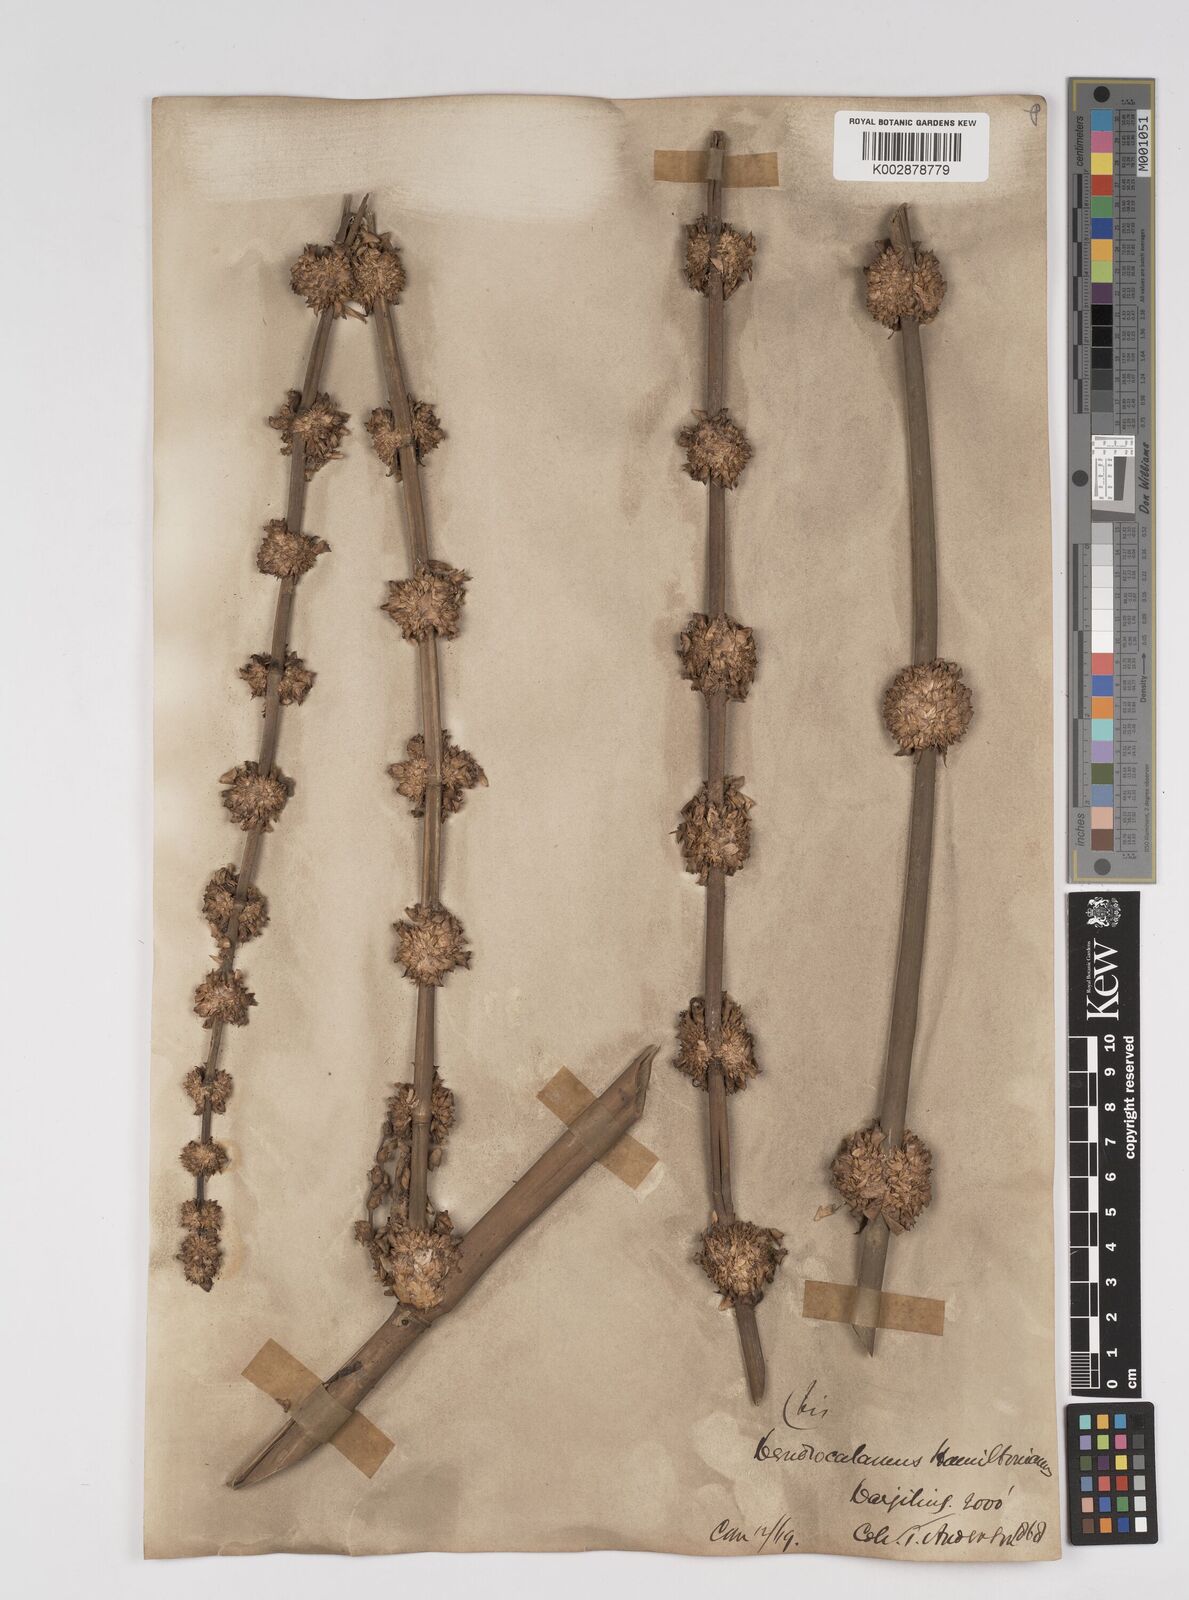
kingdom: Plantae
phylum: Tracheophyta
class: Liliopsida
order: Poales
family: Poaceae
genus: Dendrocalamus
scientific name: Dendrocalamus hamiltonii
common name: Tama bamboo
